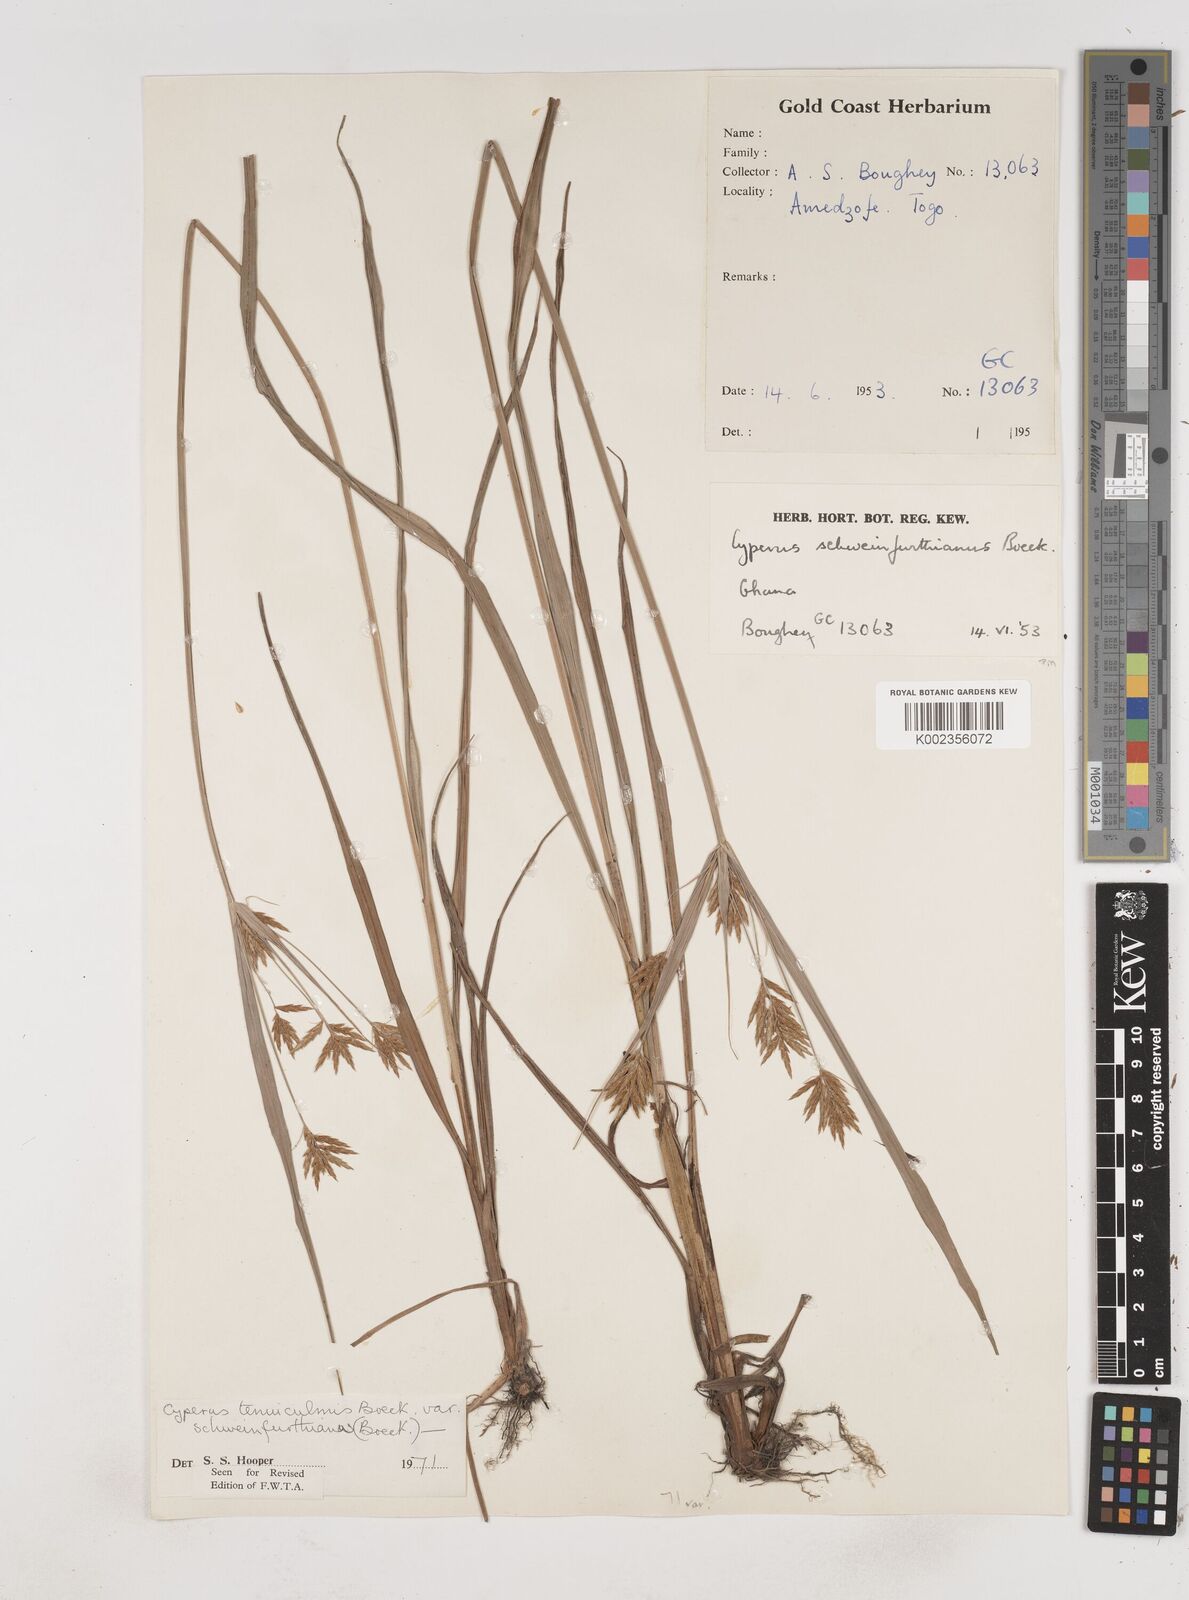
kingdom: Plantae
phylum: Tracheophyta
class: Liliopsida
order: Poales
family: Cyperaceae
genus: Cyperus
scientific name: Cyperus tenuiculmis
